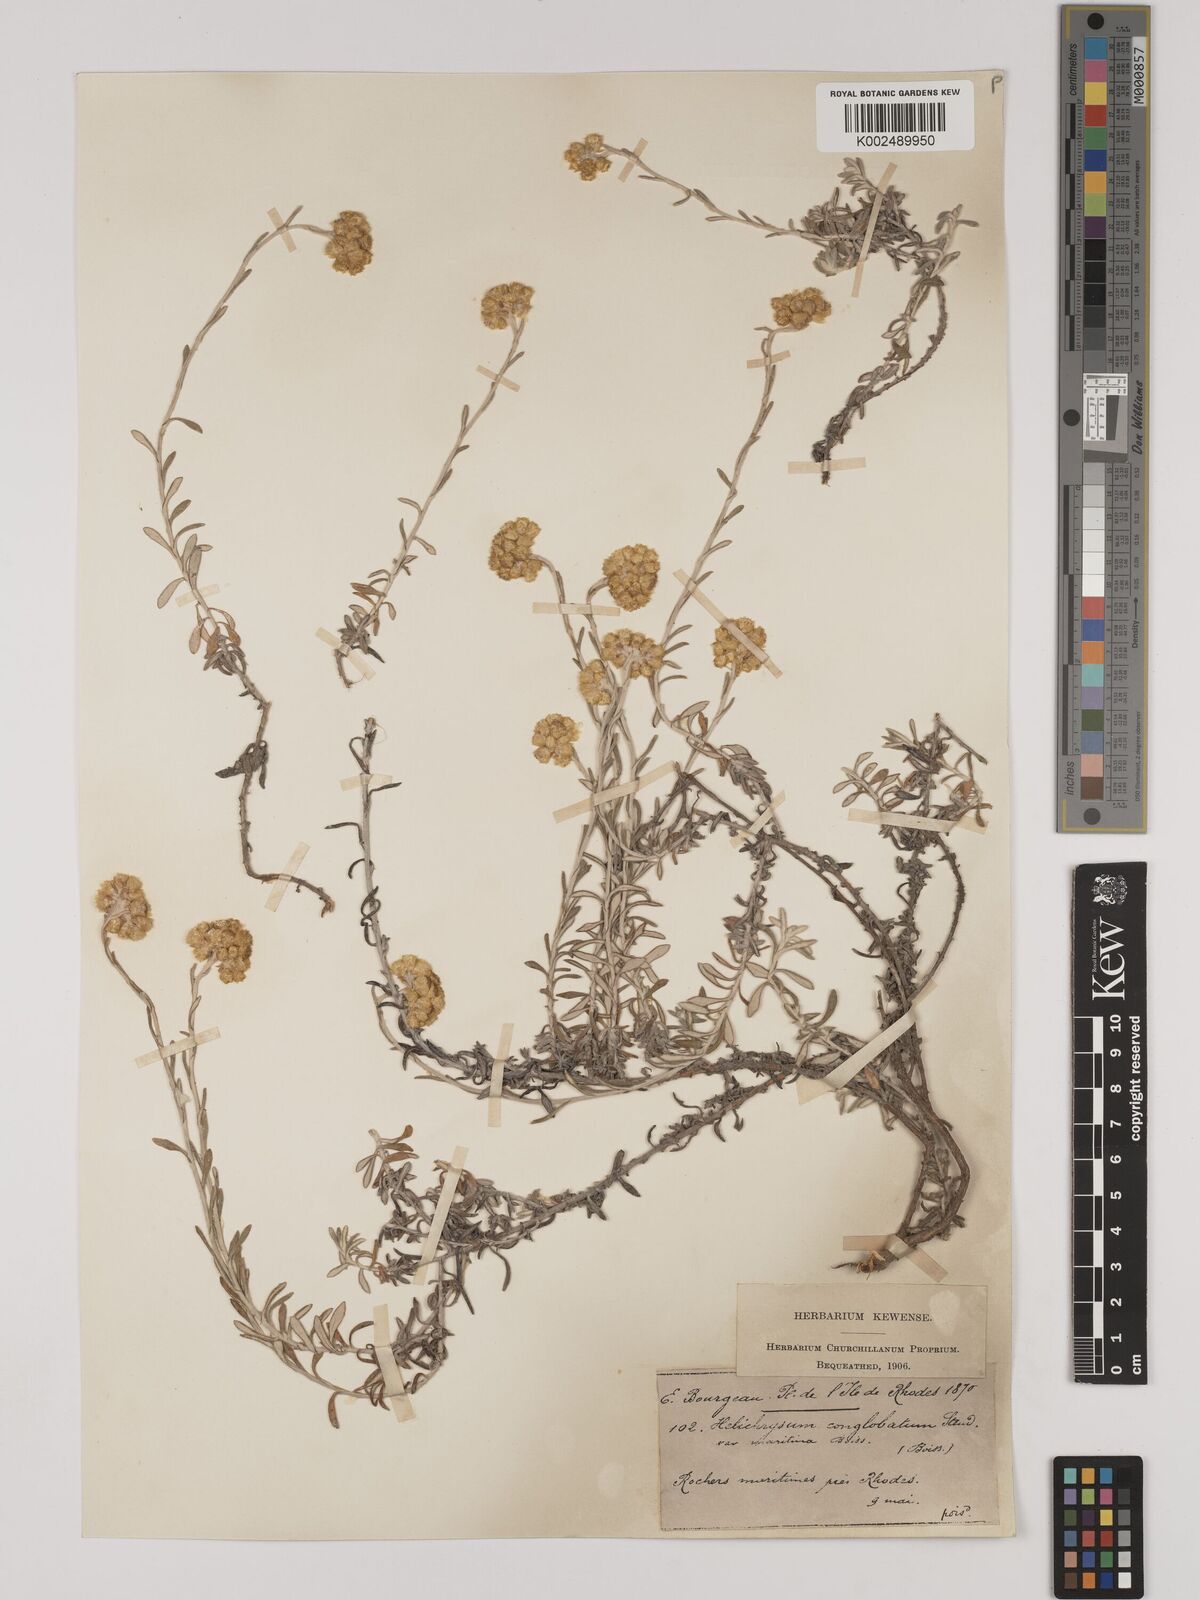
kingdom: Plantae
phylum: Tracheophyta
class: Magnoliopsida
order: Asterales
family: Asteraceae
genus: Helichrysum
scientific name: Helichrysum italicum
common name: Curryplant
